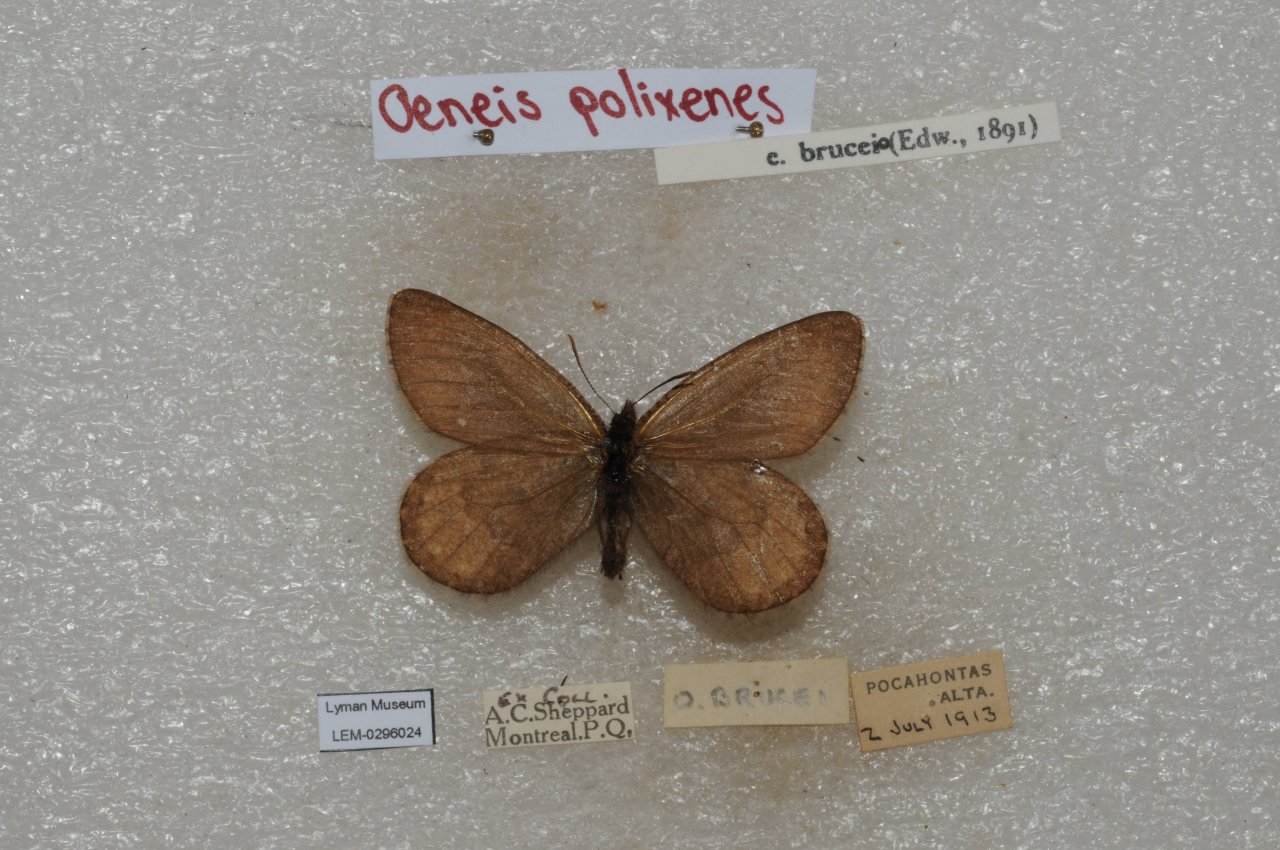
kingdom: Animalia
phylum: Arthropoda
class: Insecta
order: Lepidoptera
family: Nymphalidae
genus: Oeneis
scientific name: Oeneis bore
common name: Polixenes Arctic
